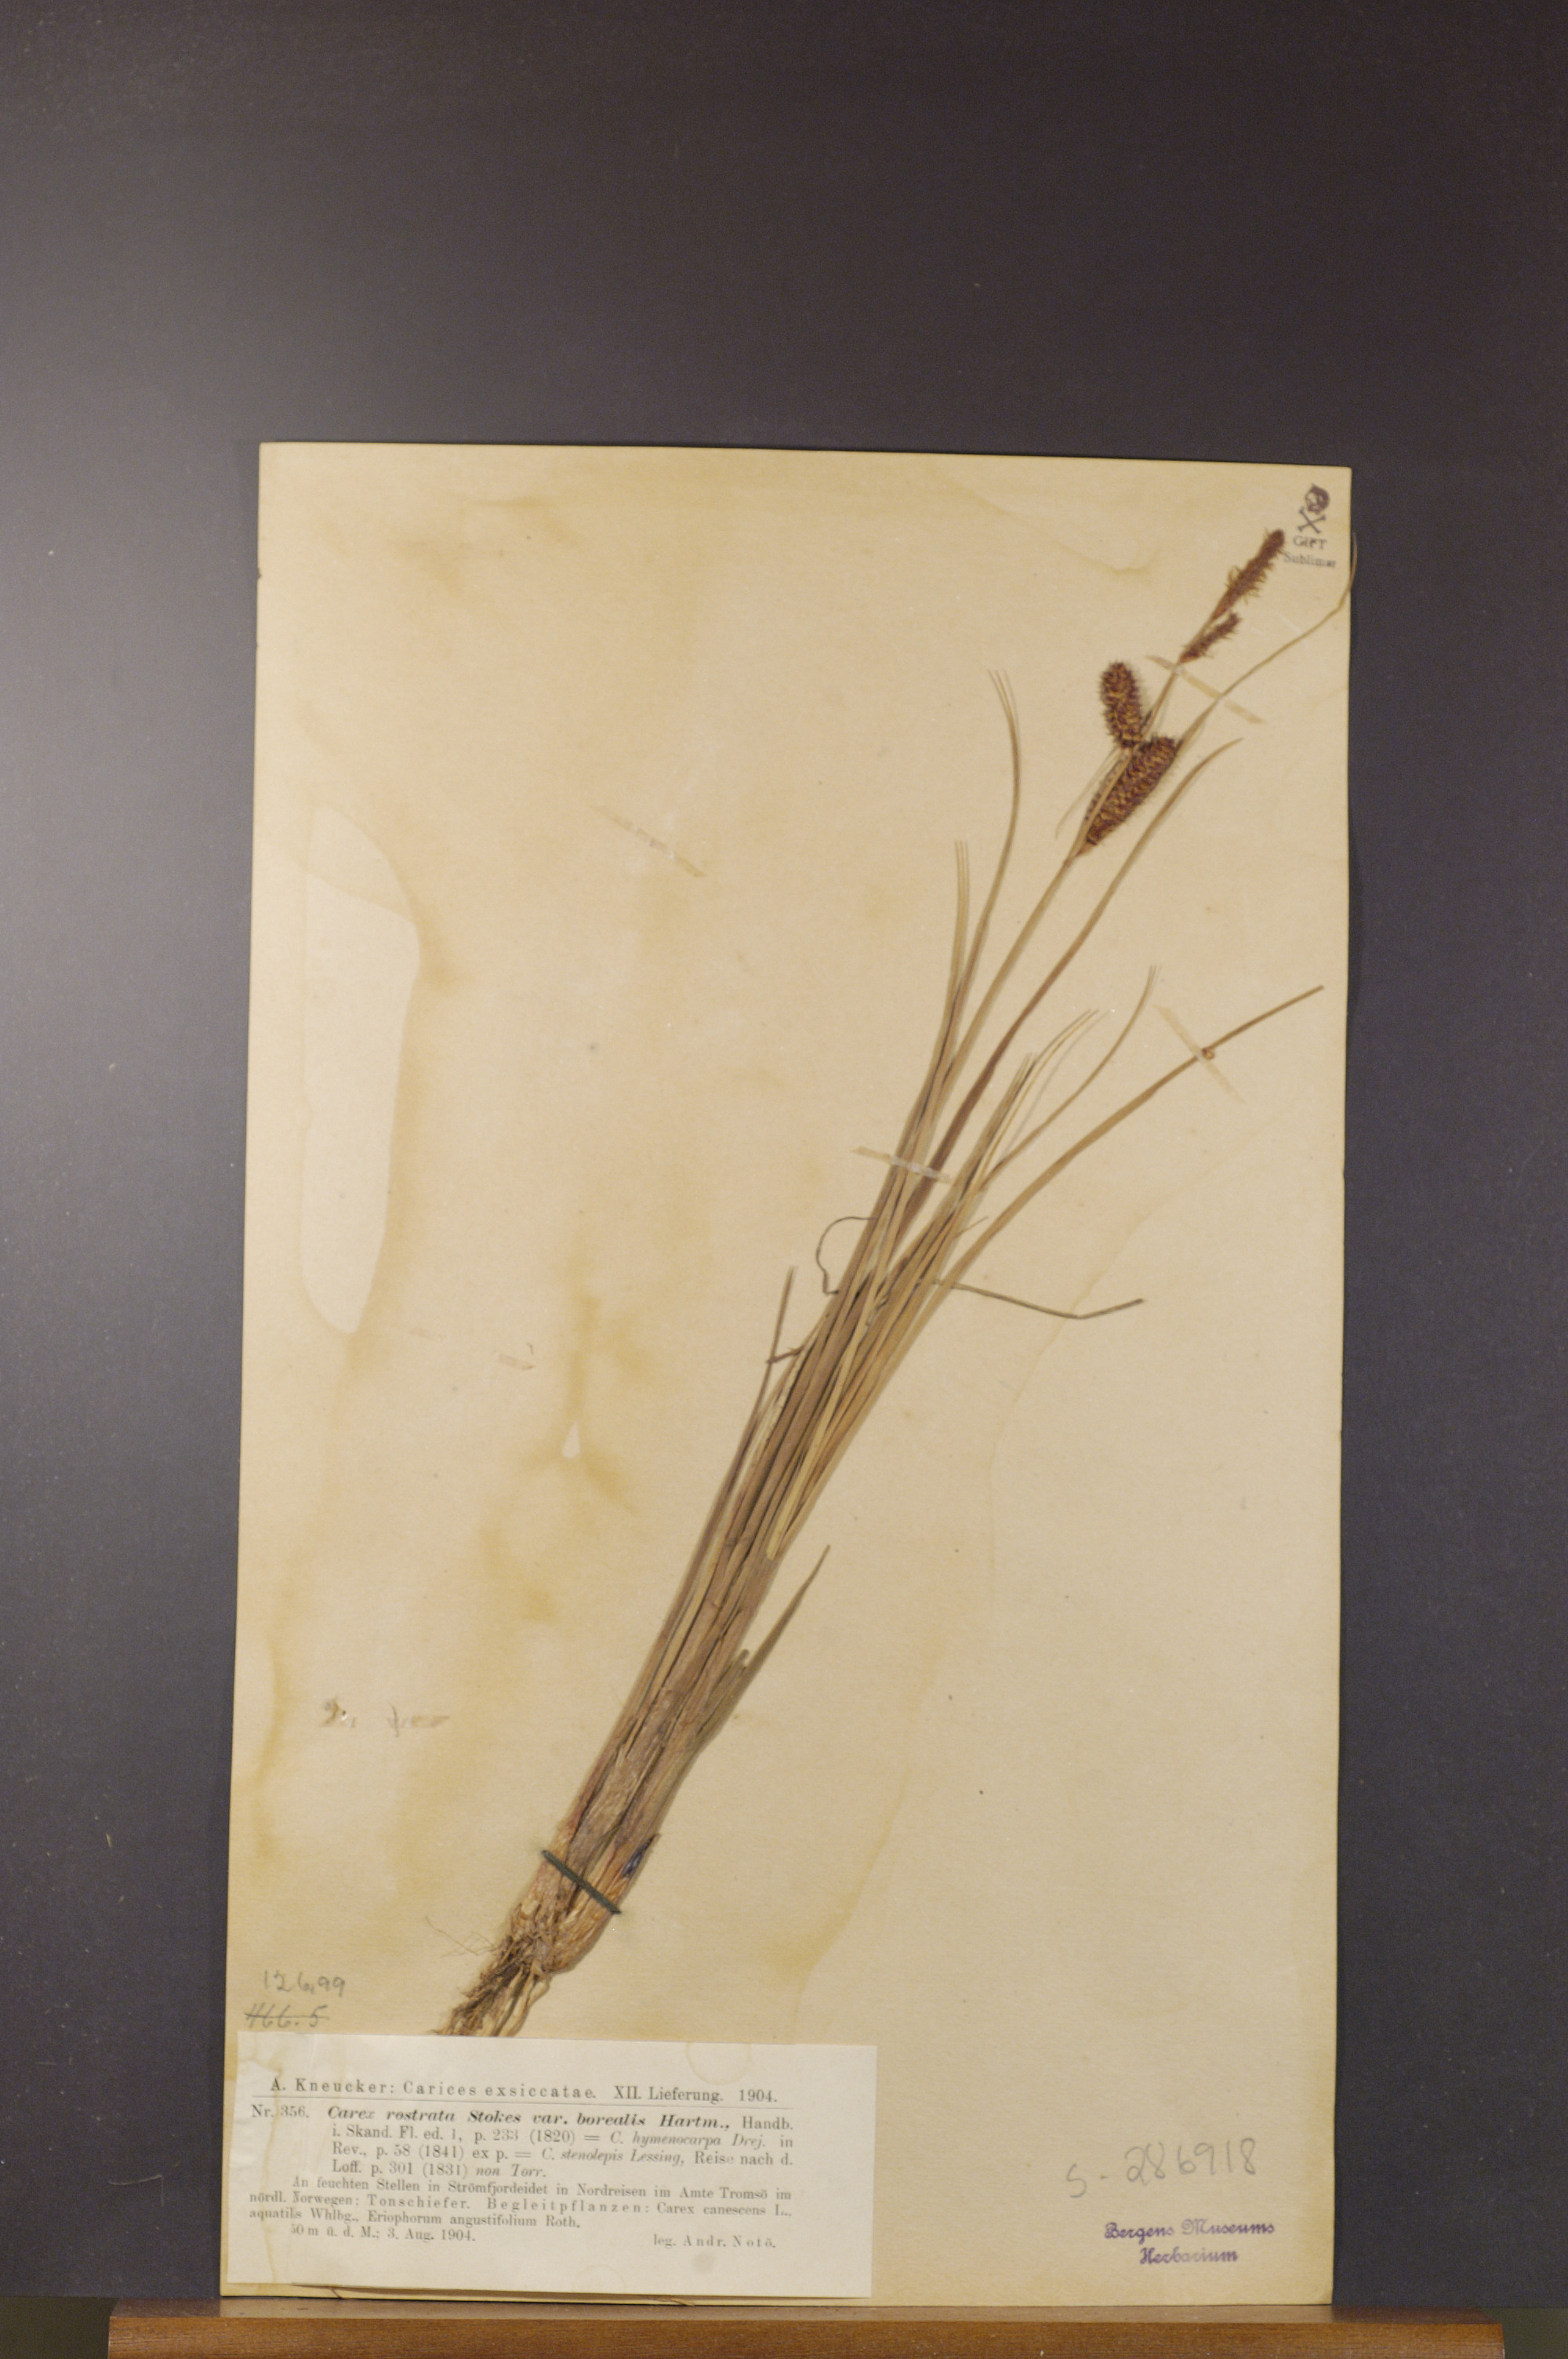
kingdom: Plantae
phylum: Tracheophyta
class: Liliopsida
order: Poales
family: Cyperaceae
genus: Carex
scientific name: Carex saamica
